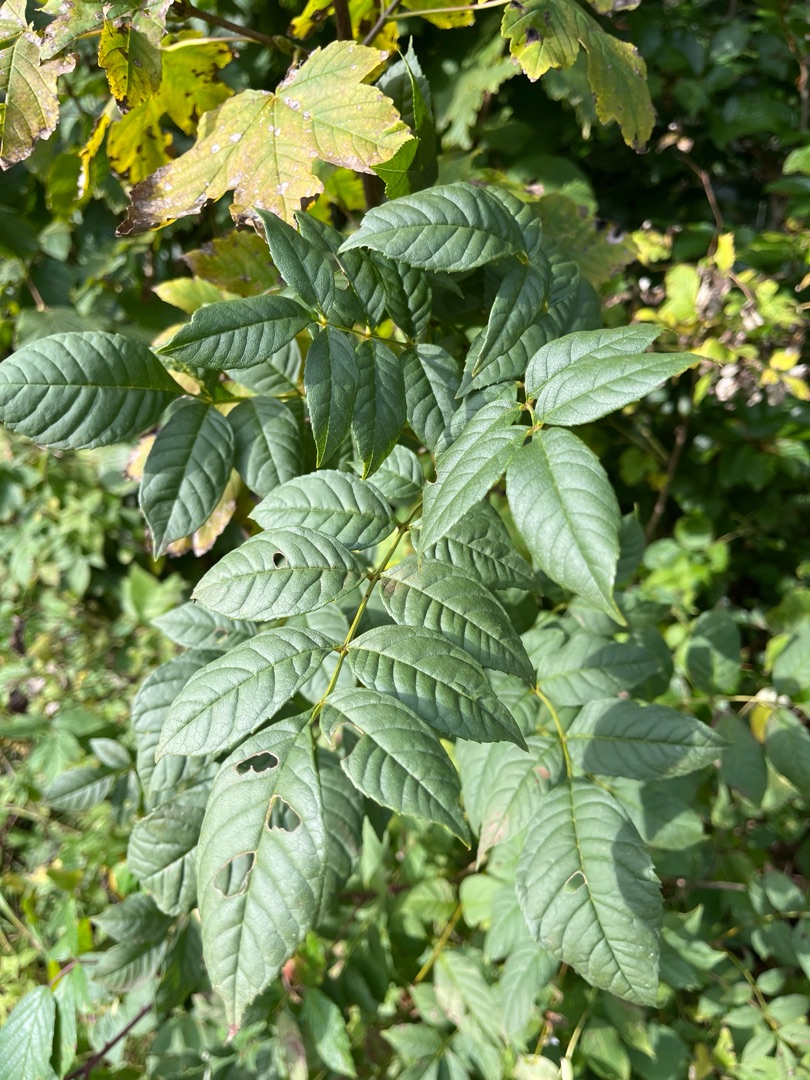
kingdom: Plantae
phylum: Tracheophyta
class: Magnoliopsida
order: Lamiales
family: Oleaceae
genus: Fraxinus
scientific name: Fraxinus excelsior
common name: Ask
